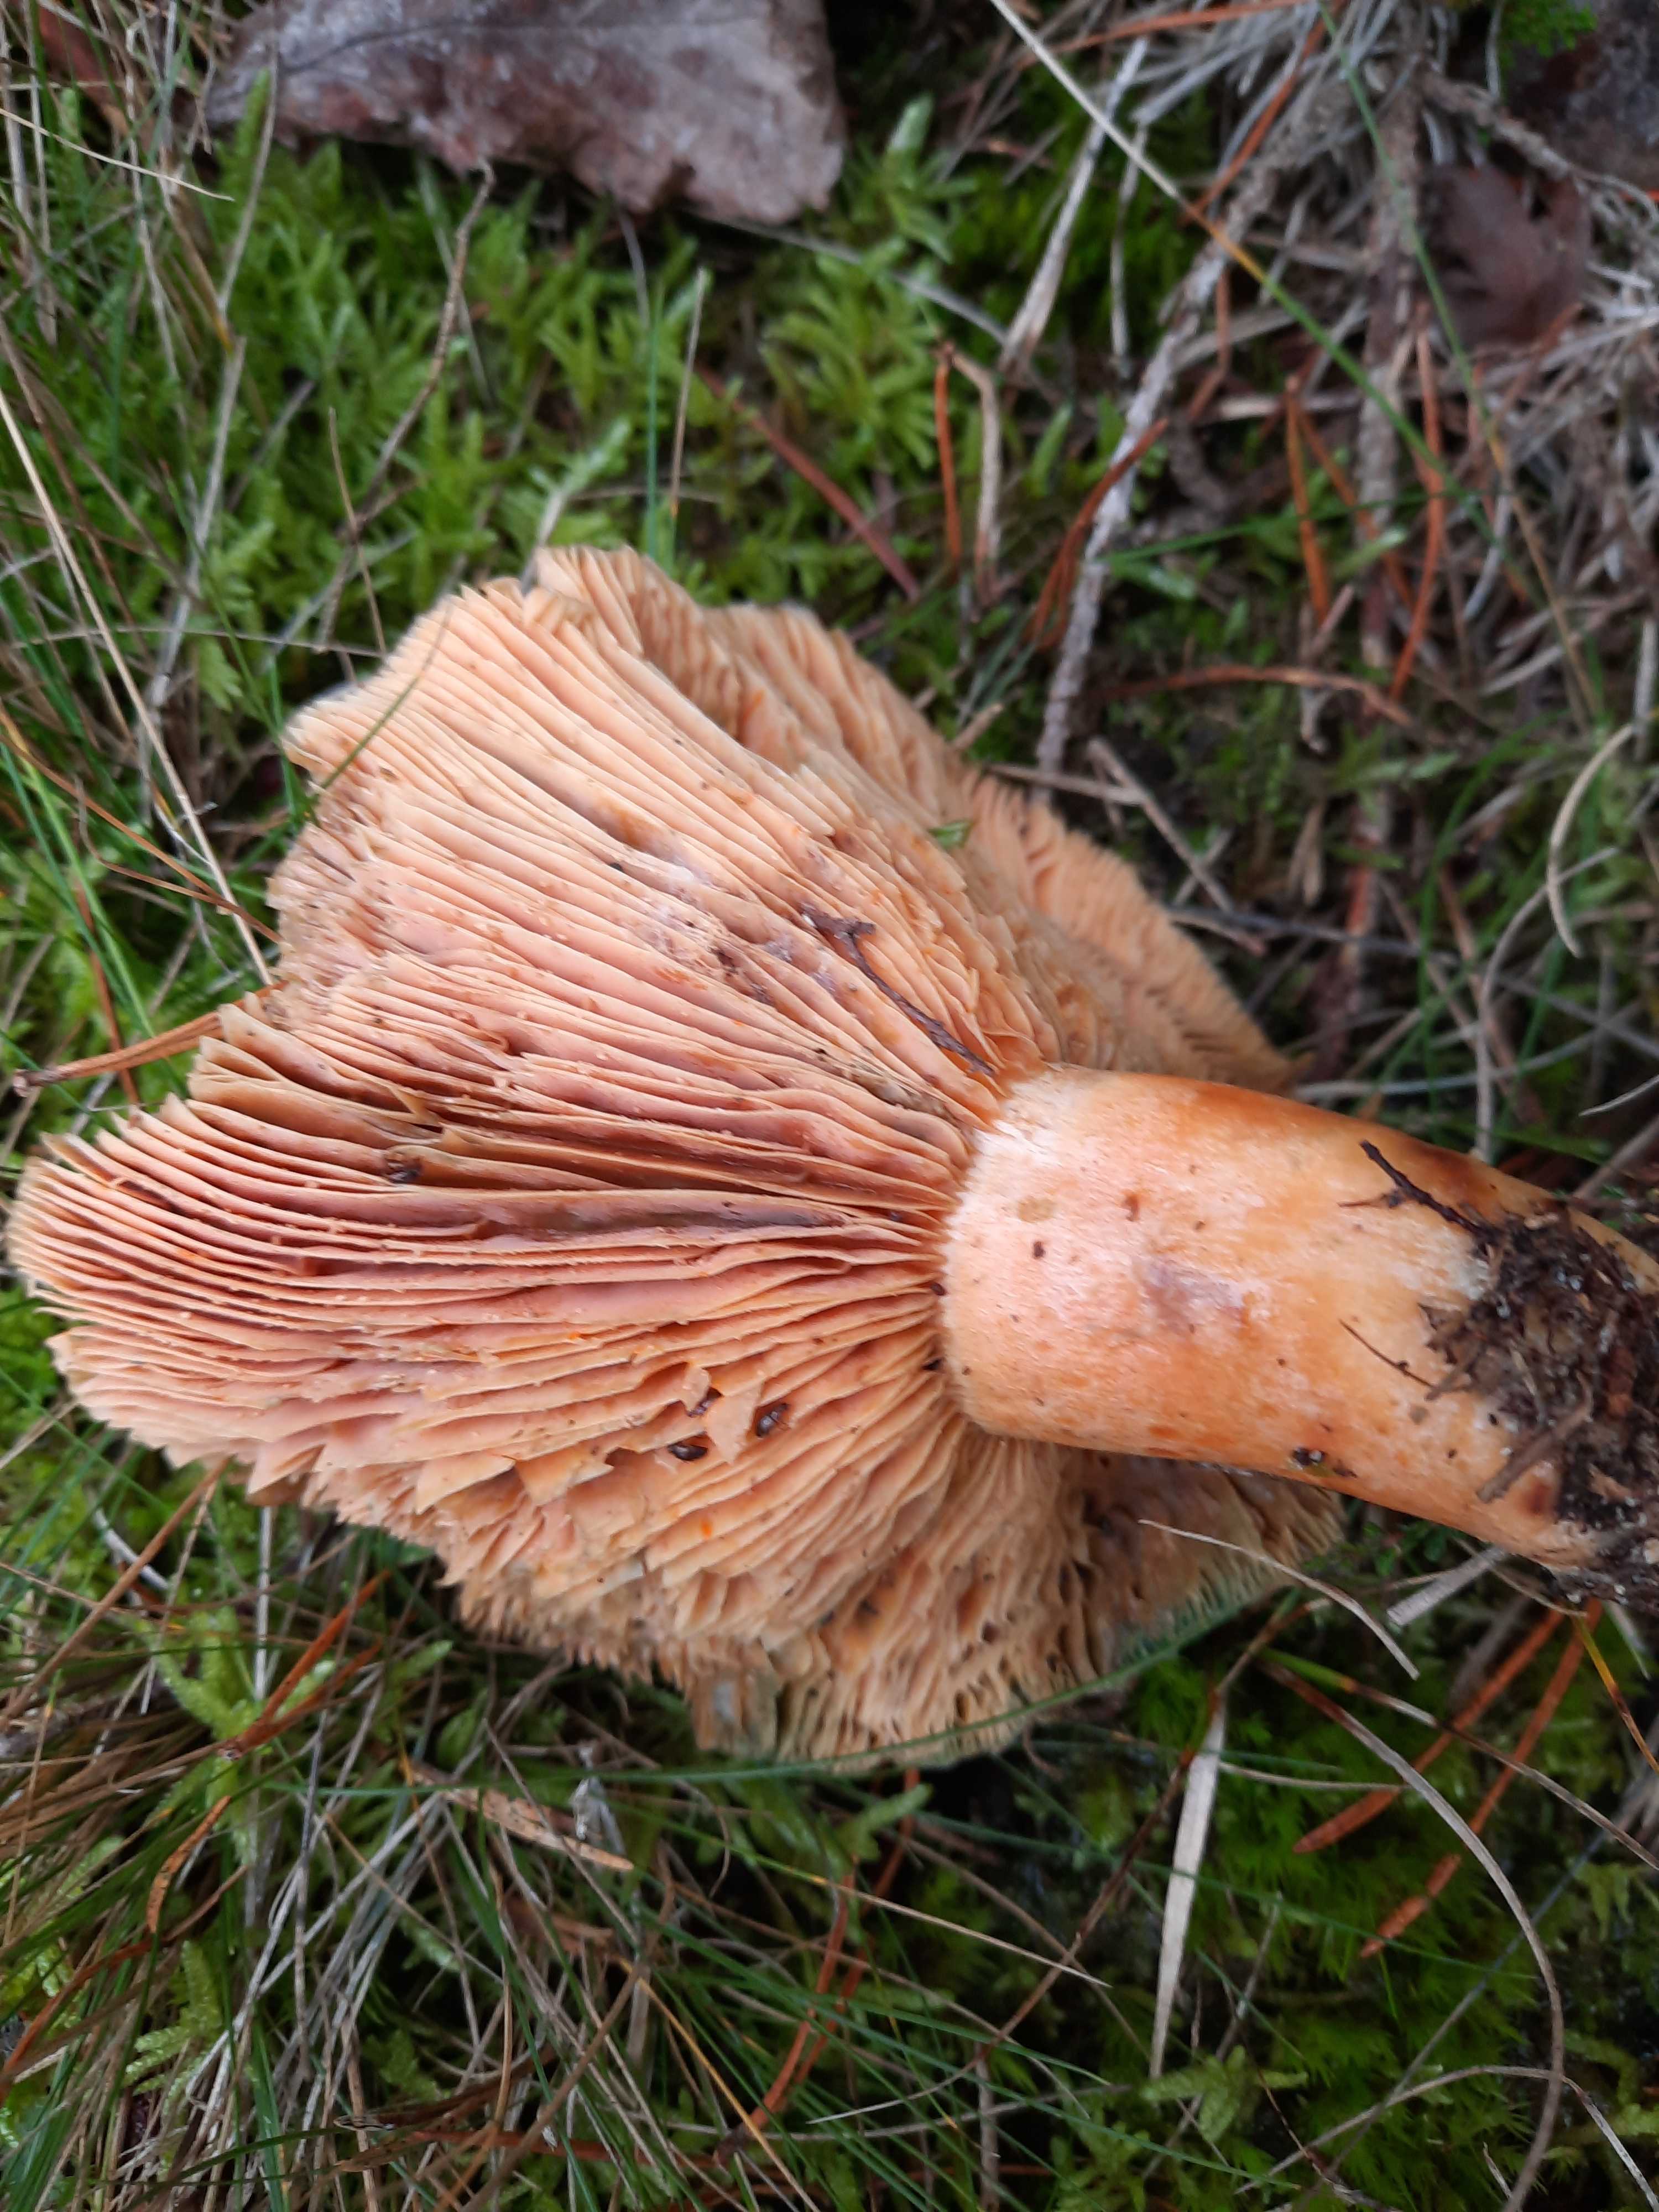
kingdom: Fungi
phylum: Basidiomycota
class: Agaricomycetes
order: Russulales
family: Russulaceae
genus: Lactarius
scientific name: Lactarius deliciosus
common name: velsmagende mælkehat
